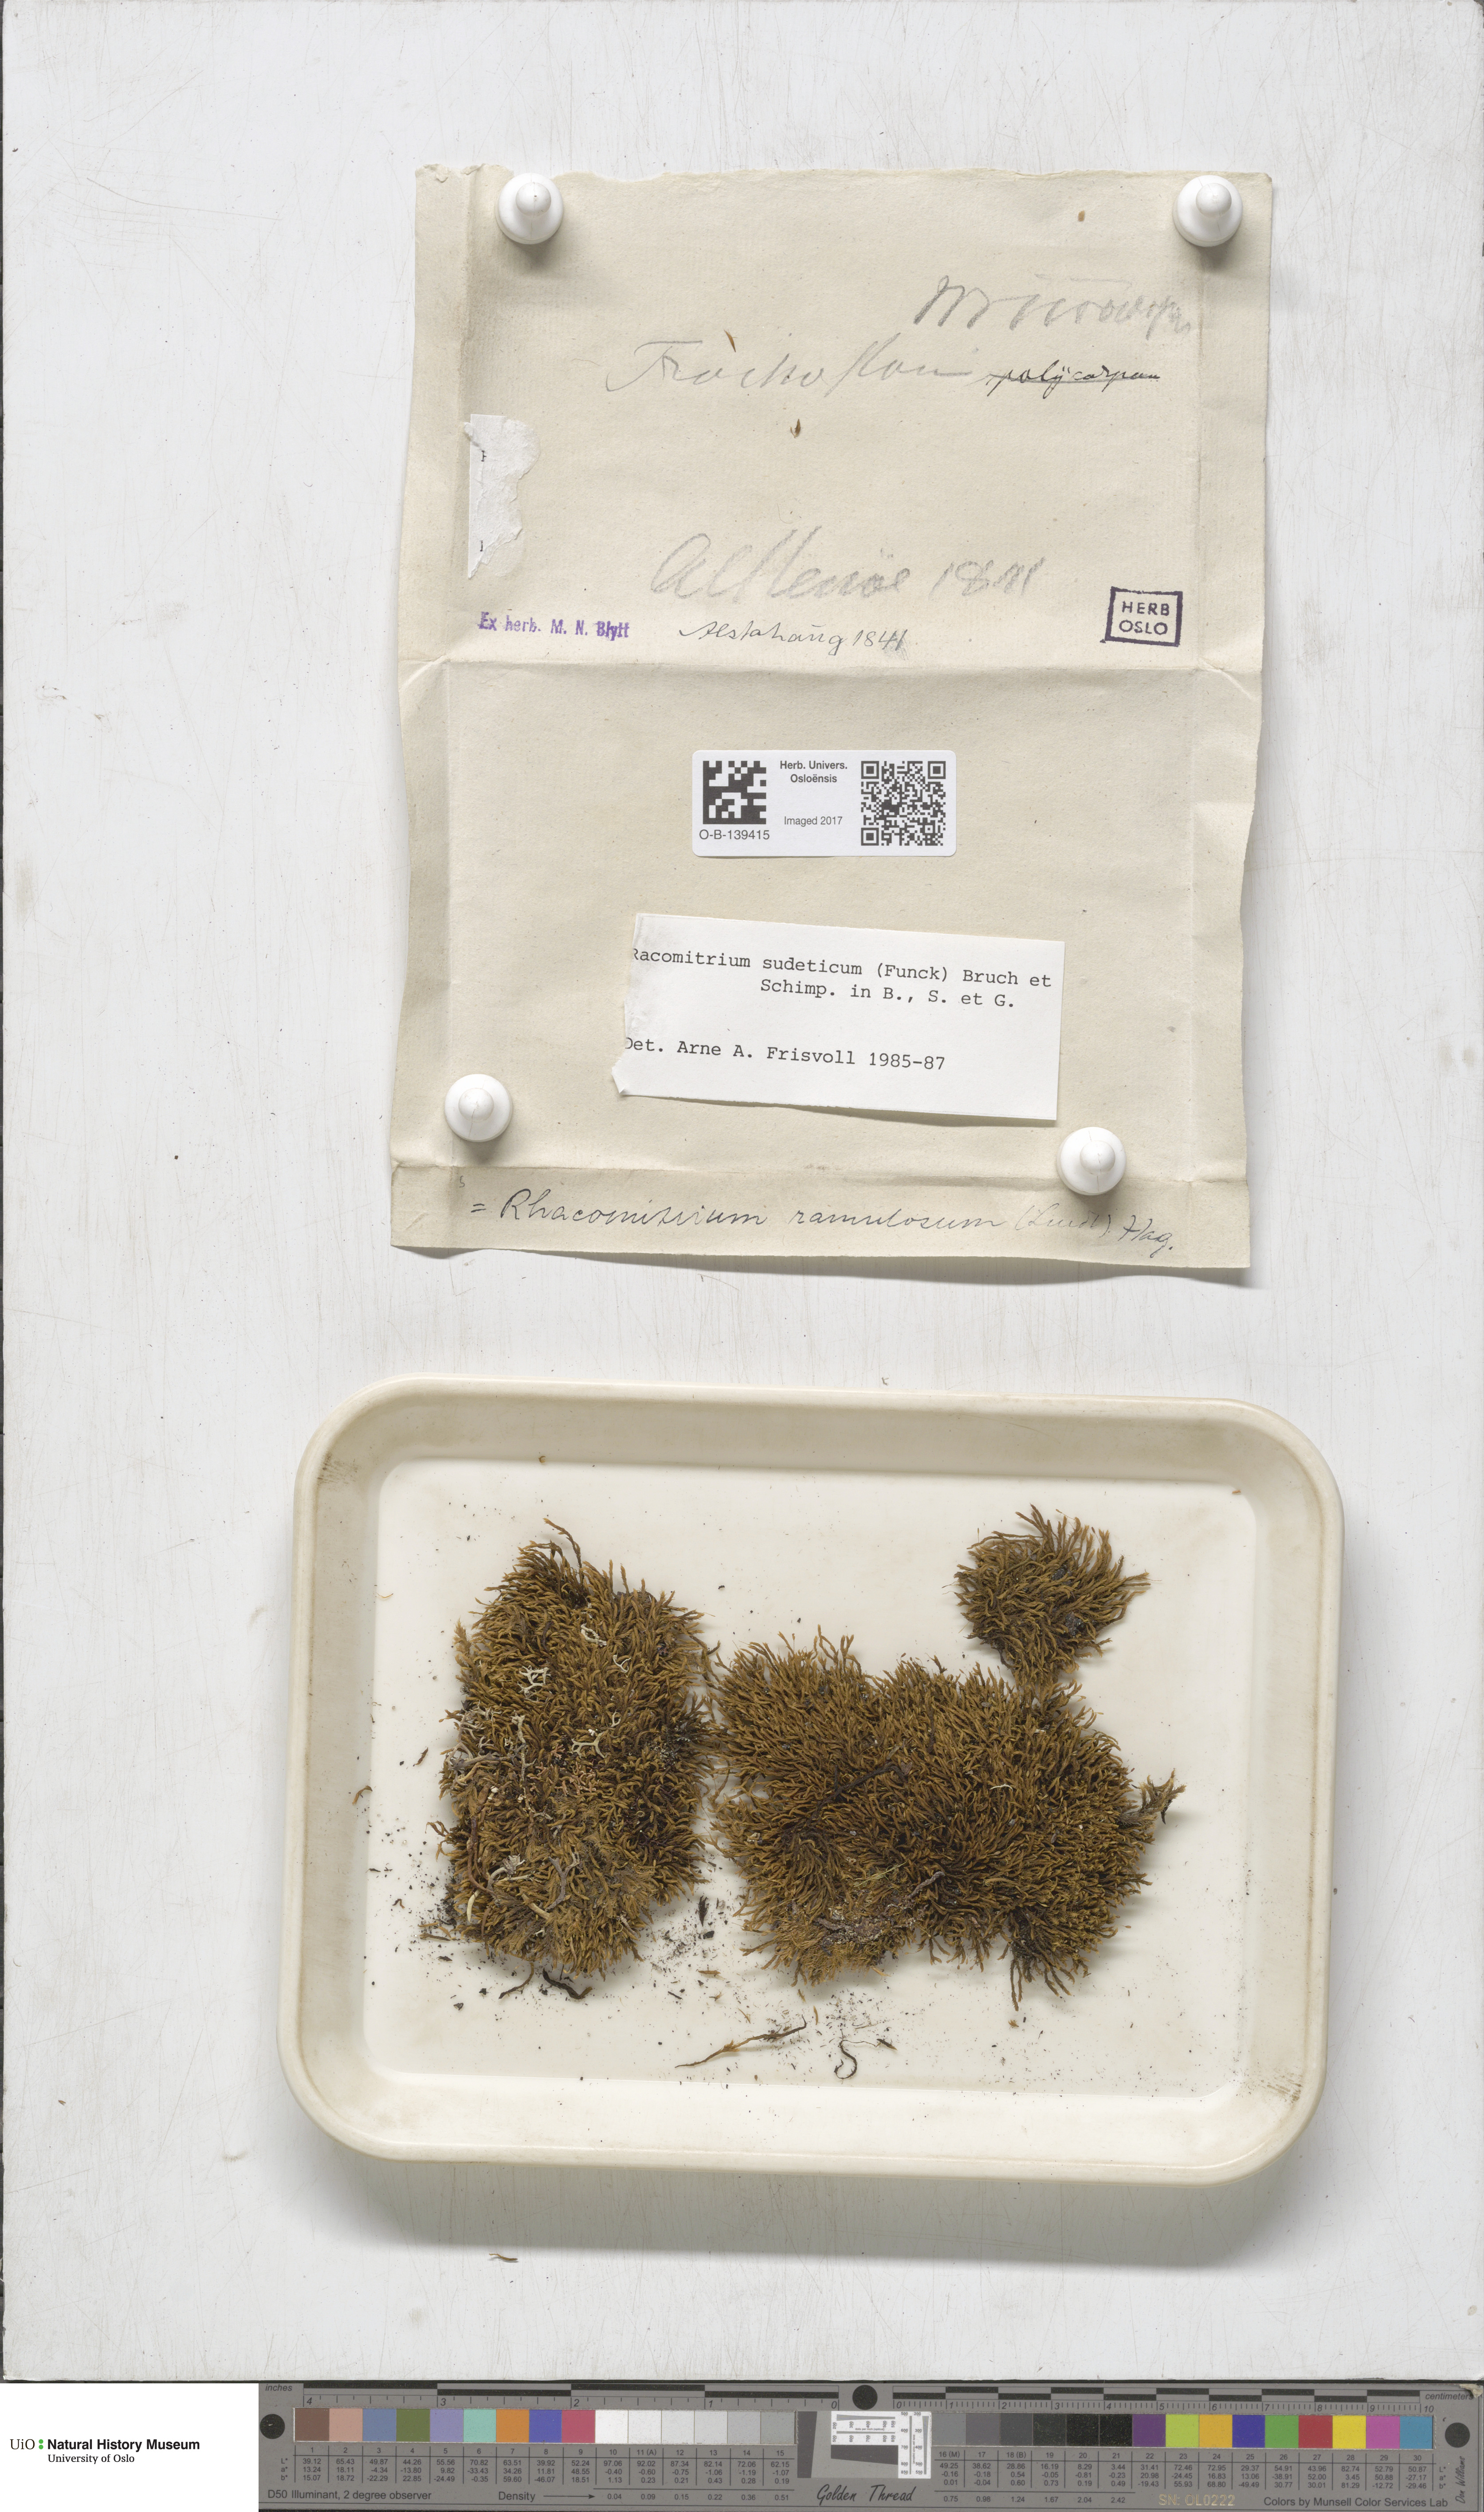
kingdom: Plantae
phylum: Bryophyta
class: Bryopsida
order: Grimmiales
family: Grimmiaceae
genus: Bucklandiella
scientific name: Bucklandiella sudetica
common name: Slender fringe-moss
